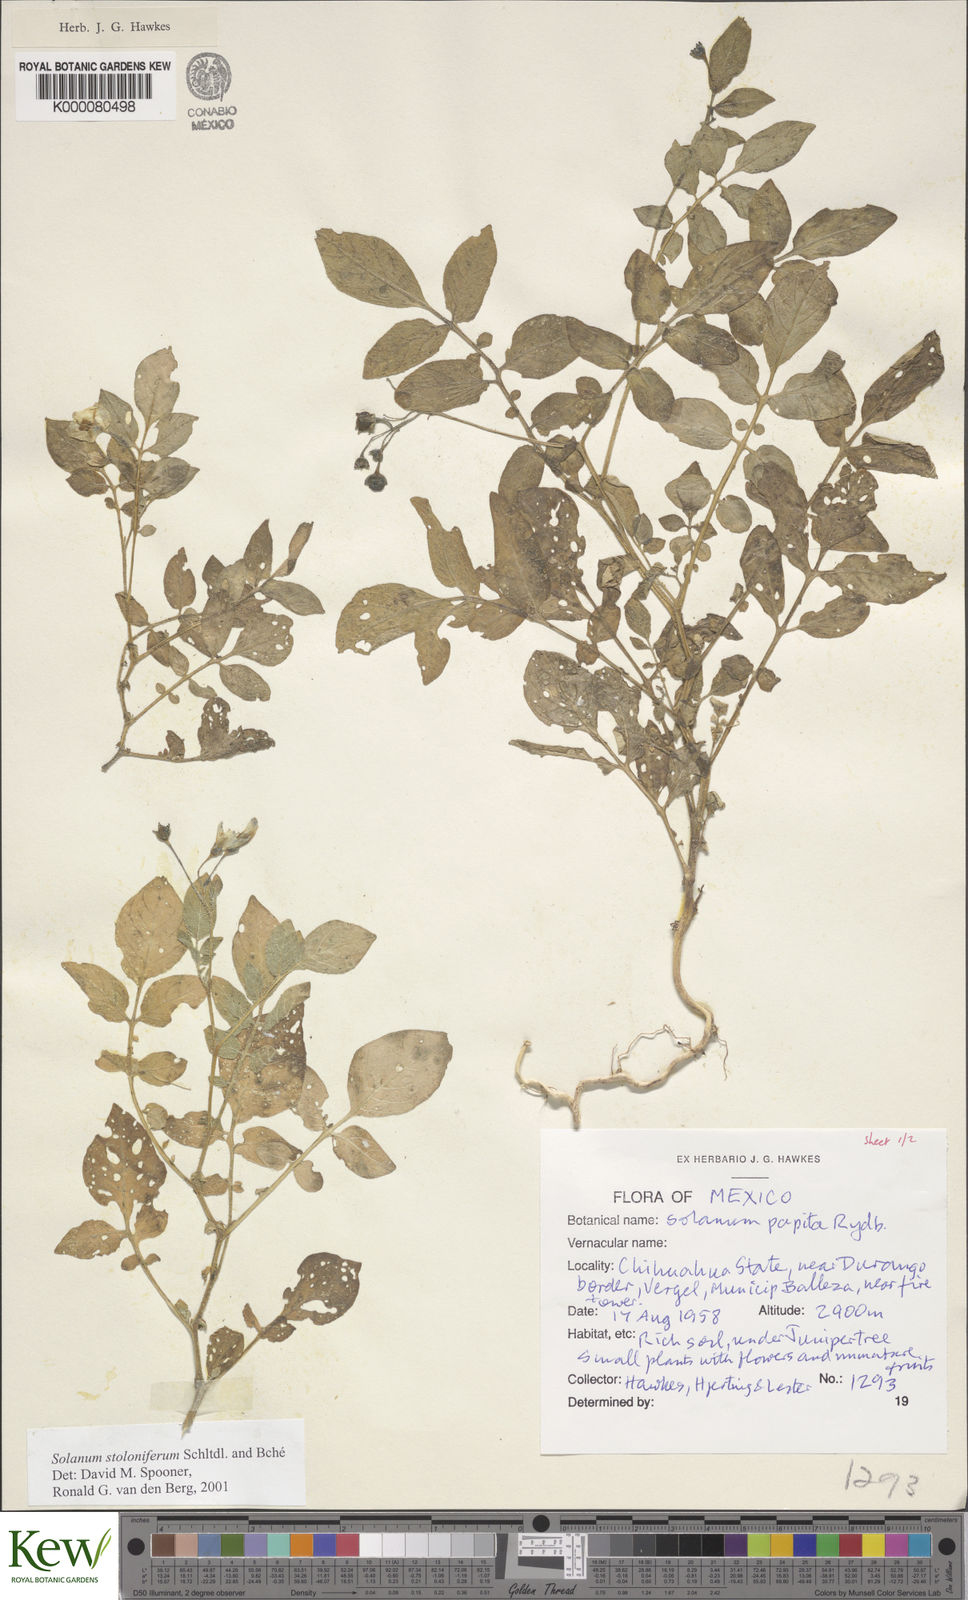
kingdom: Plantae
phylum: Tracheophyta
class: Magnoliopsida
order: Solanales
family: Solanaceae
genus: Solanum
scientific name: Solanum stoloniferum
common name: Fendler's nighshade
